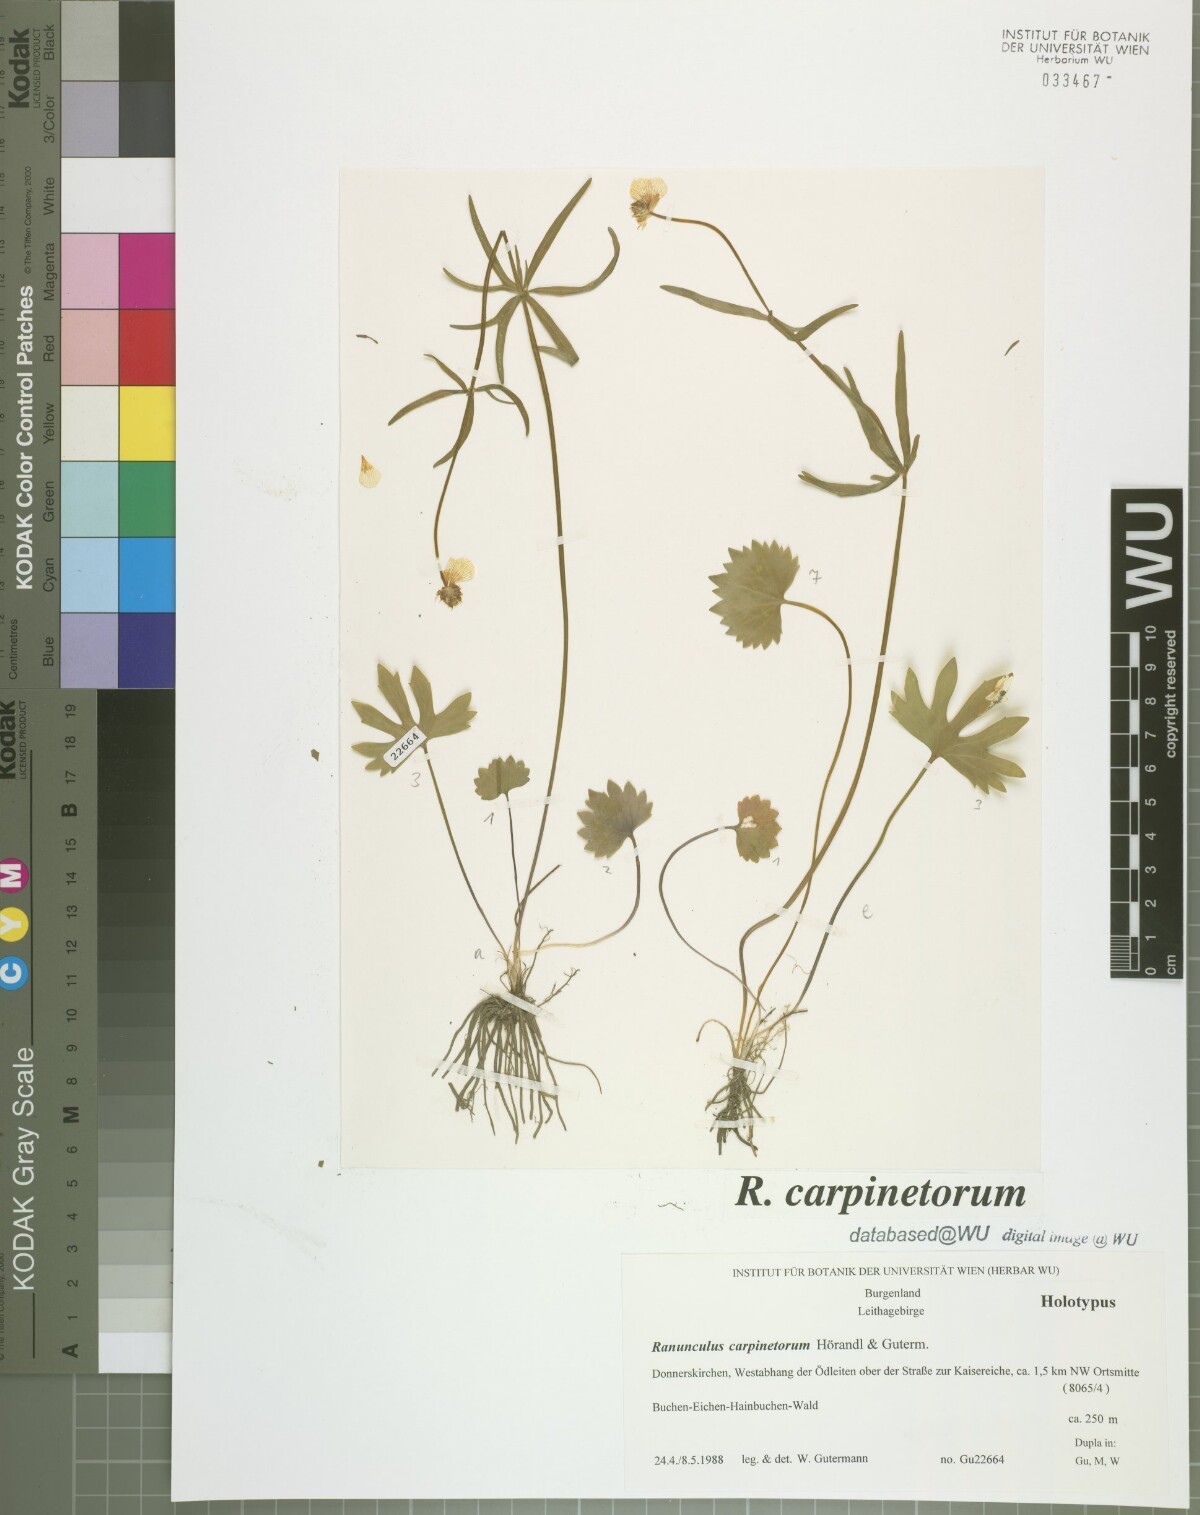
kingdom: Plantae
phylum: Tracheophyta
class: Magnoliopsida
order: Ranunculales
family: Ranunculaceae
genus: Ranunculus
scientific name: Ranunculus carpinetorum
